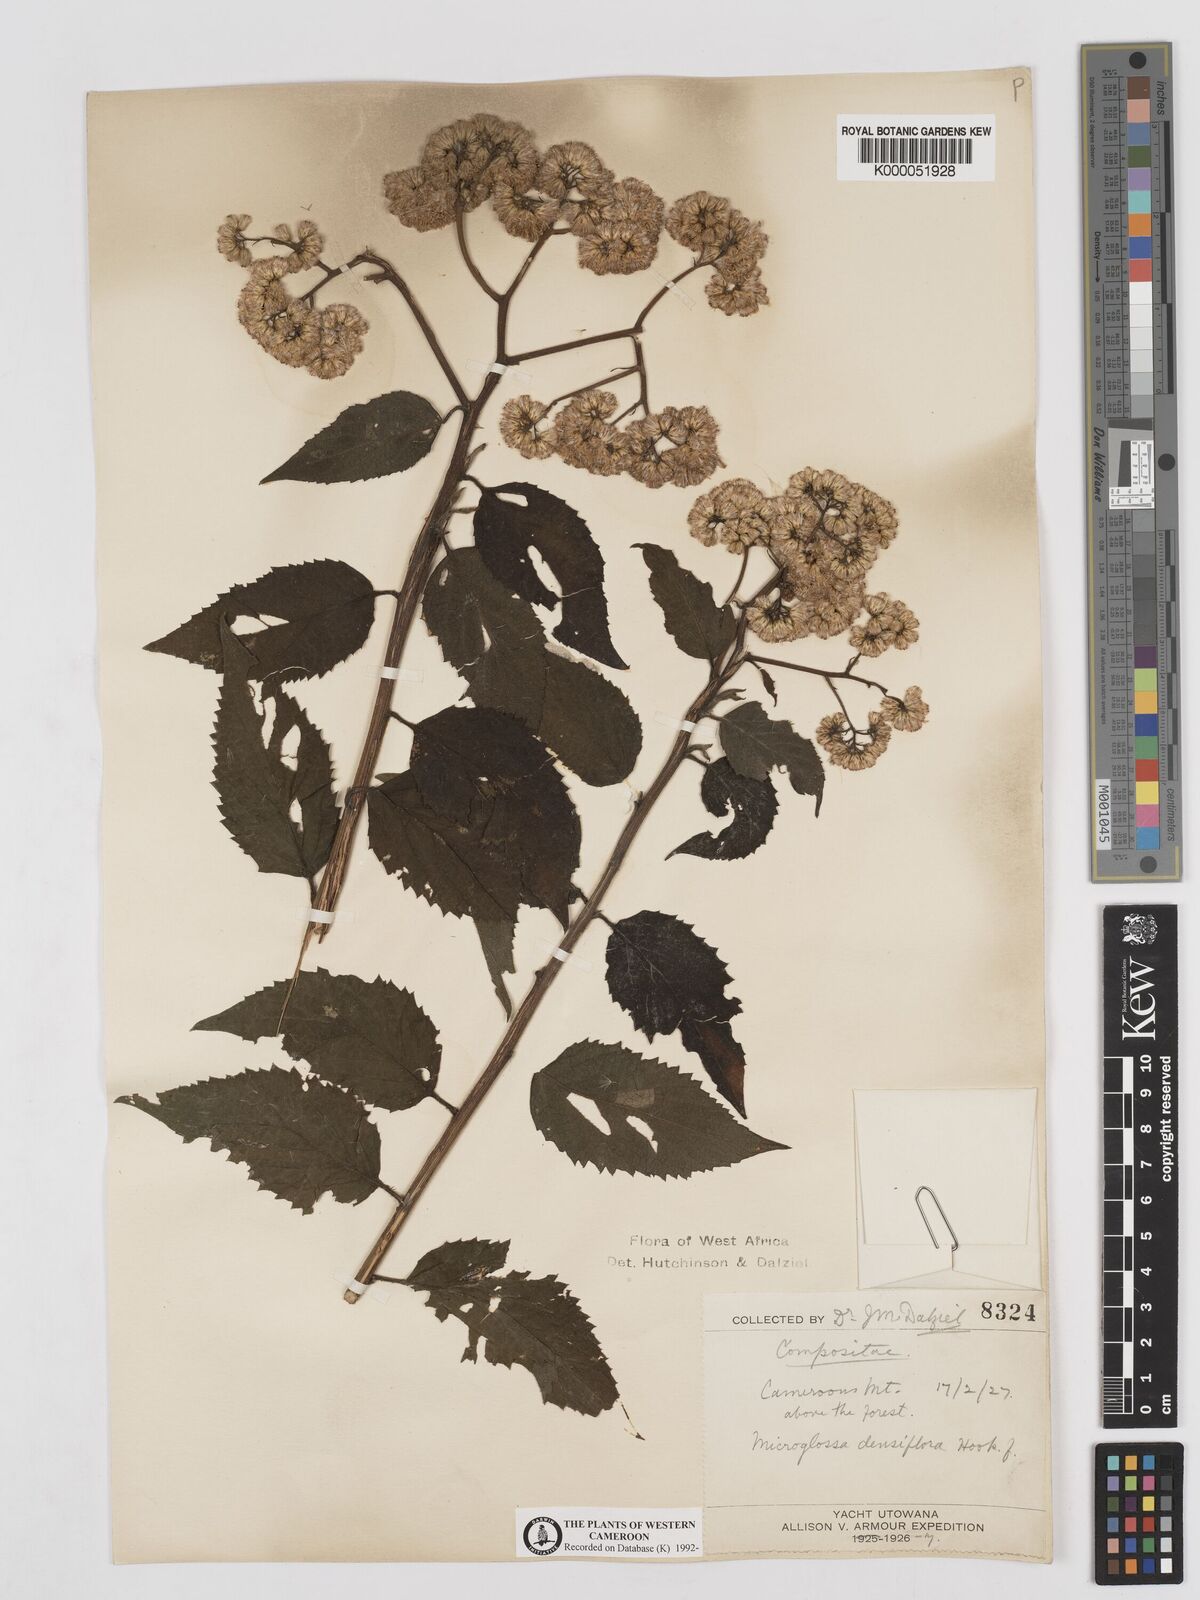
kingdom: Plantae
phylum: Tracheophyta
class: Magnoliopsida
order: Asterales
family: Asteraceae
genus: Microglossa
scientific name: Microglossa densiflora
